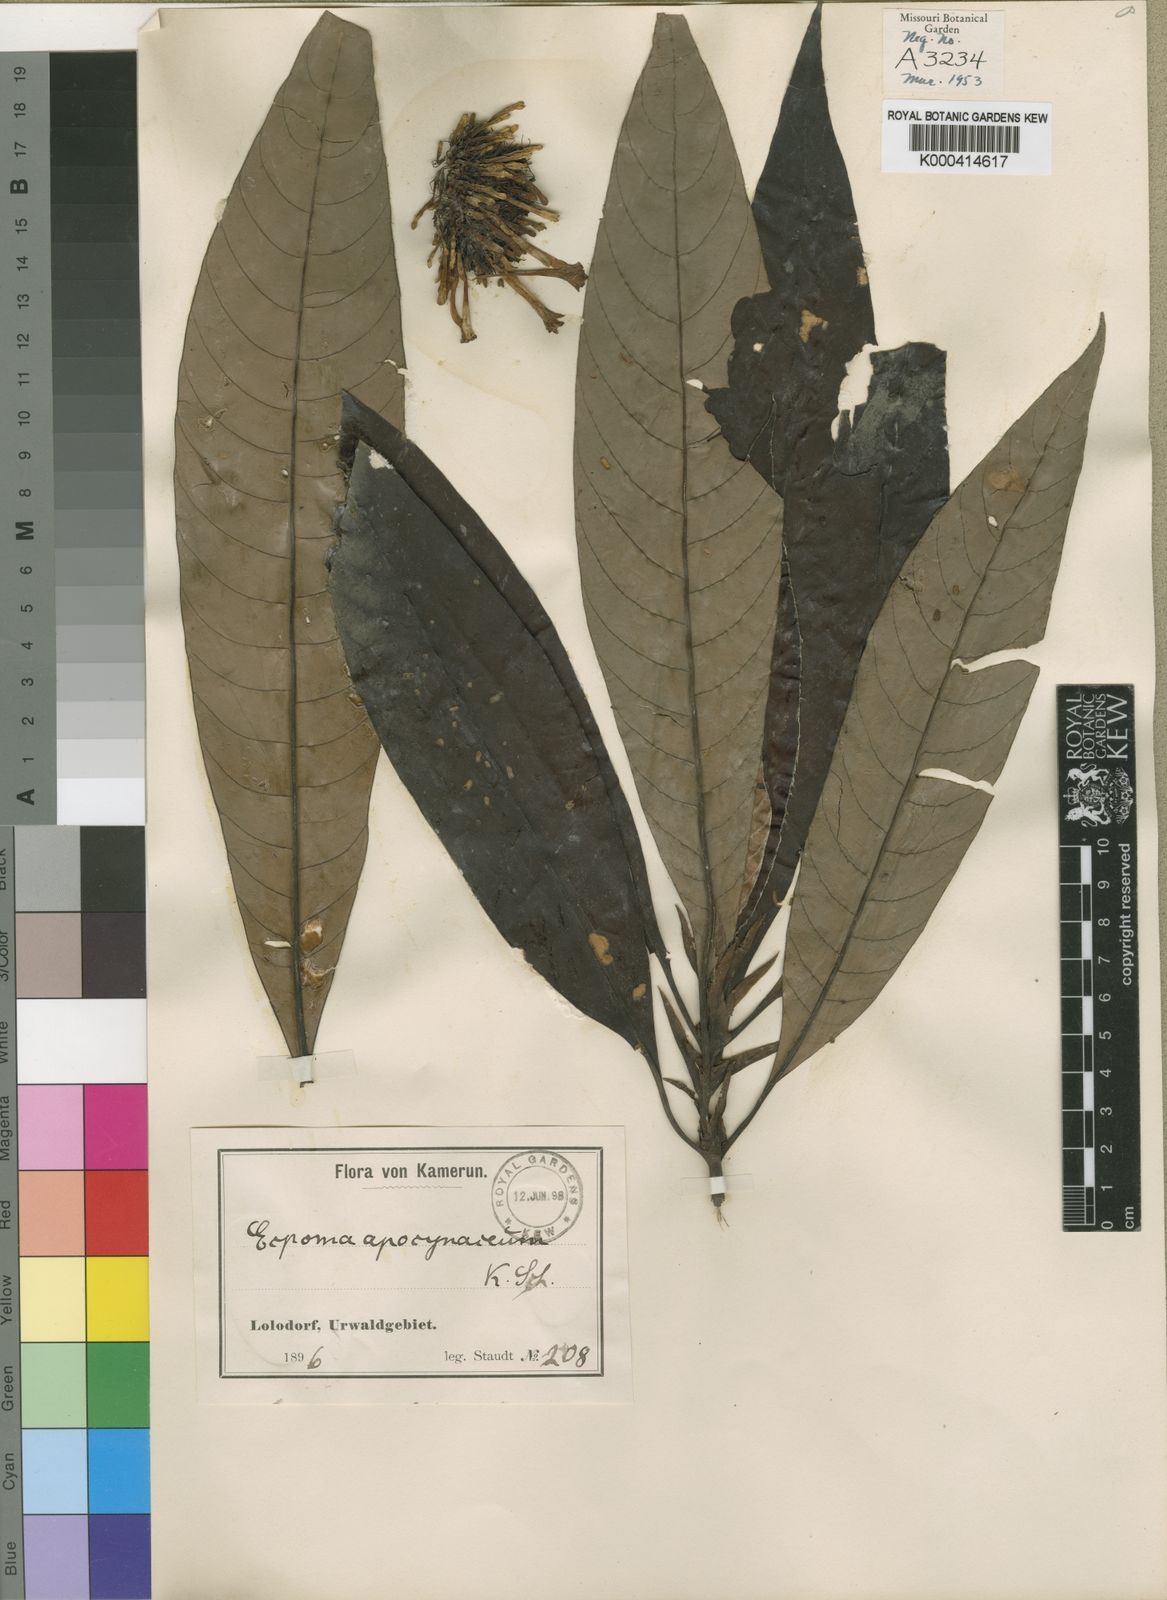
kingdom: Plantae
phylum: Tracheophyta
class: Magnoliopsida
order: Gentianales
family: Rubiaceae
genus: Sabicea
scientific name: Sabicea
